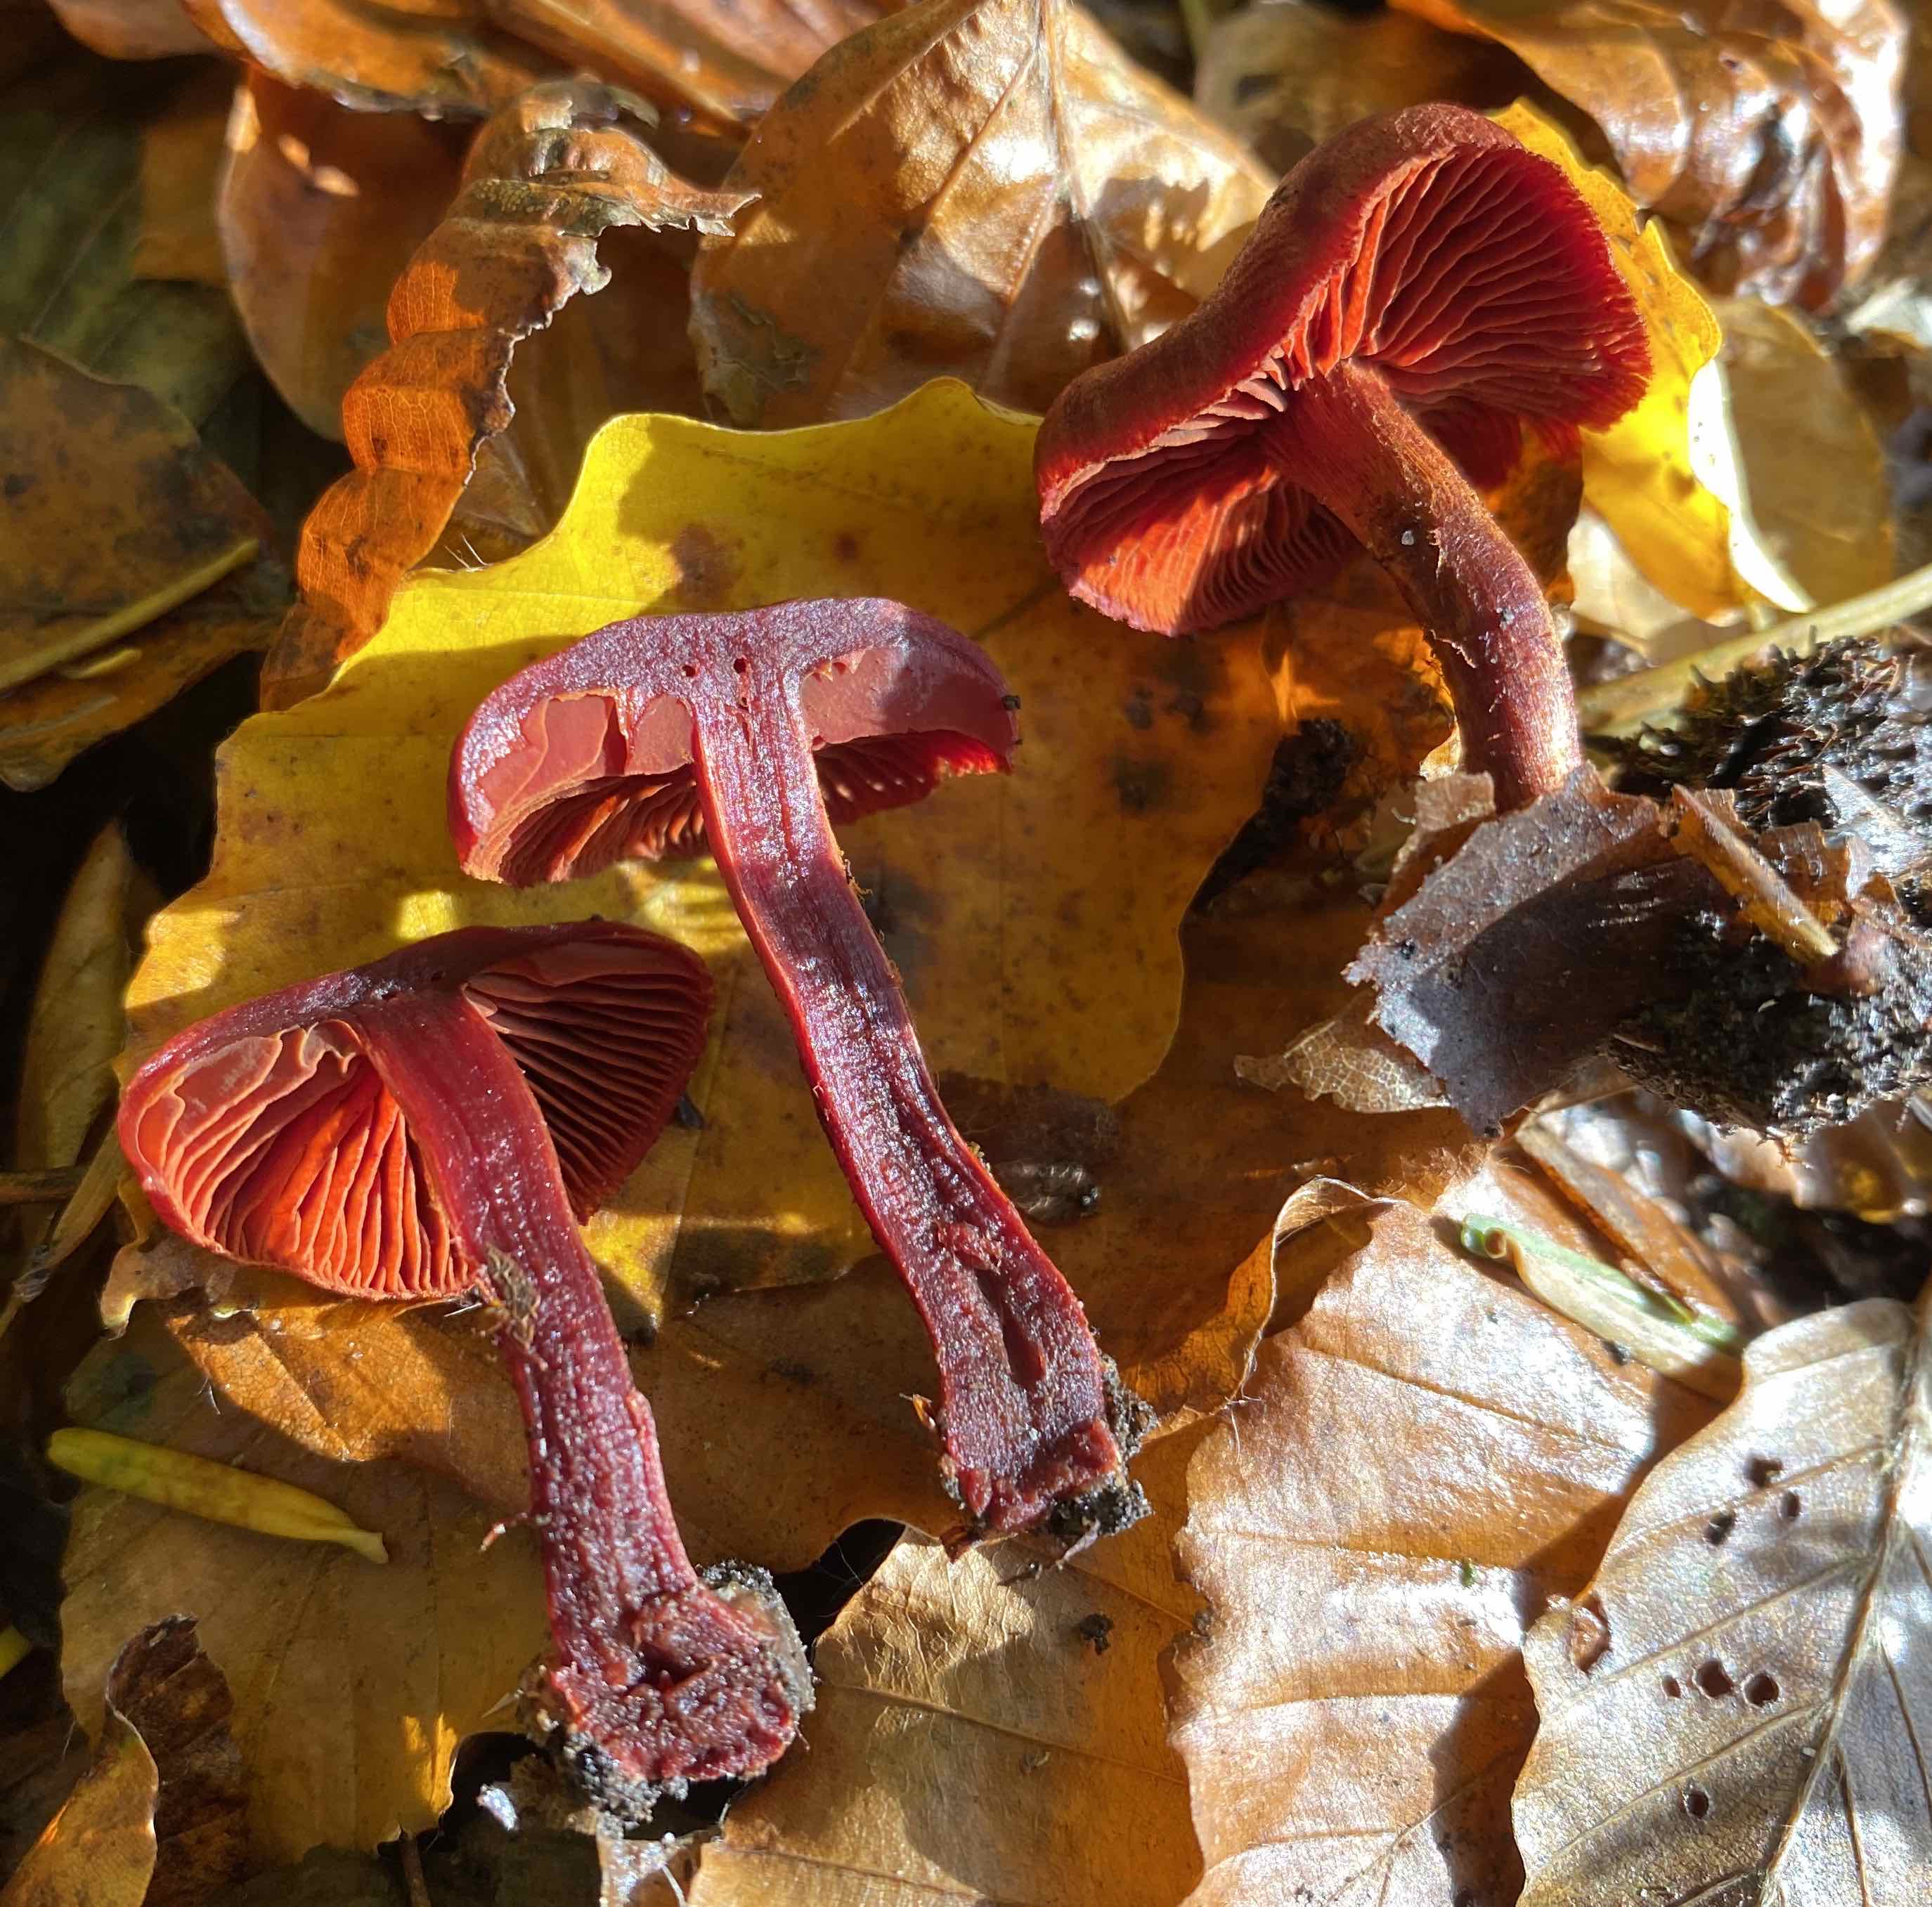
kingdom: Fungi
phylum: Basidiomycota
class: Agaricomycetes
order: Agaricales
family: Cortinariaceae
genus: Cortinarius
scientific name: Cortinarius sanguineus
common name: Bloodred webcap
